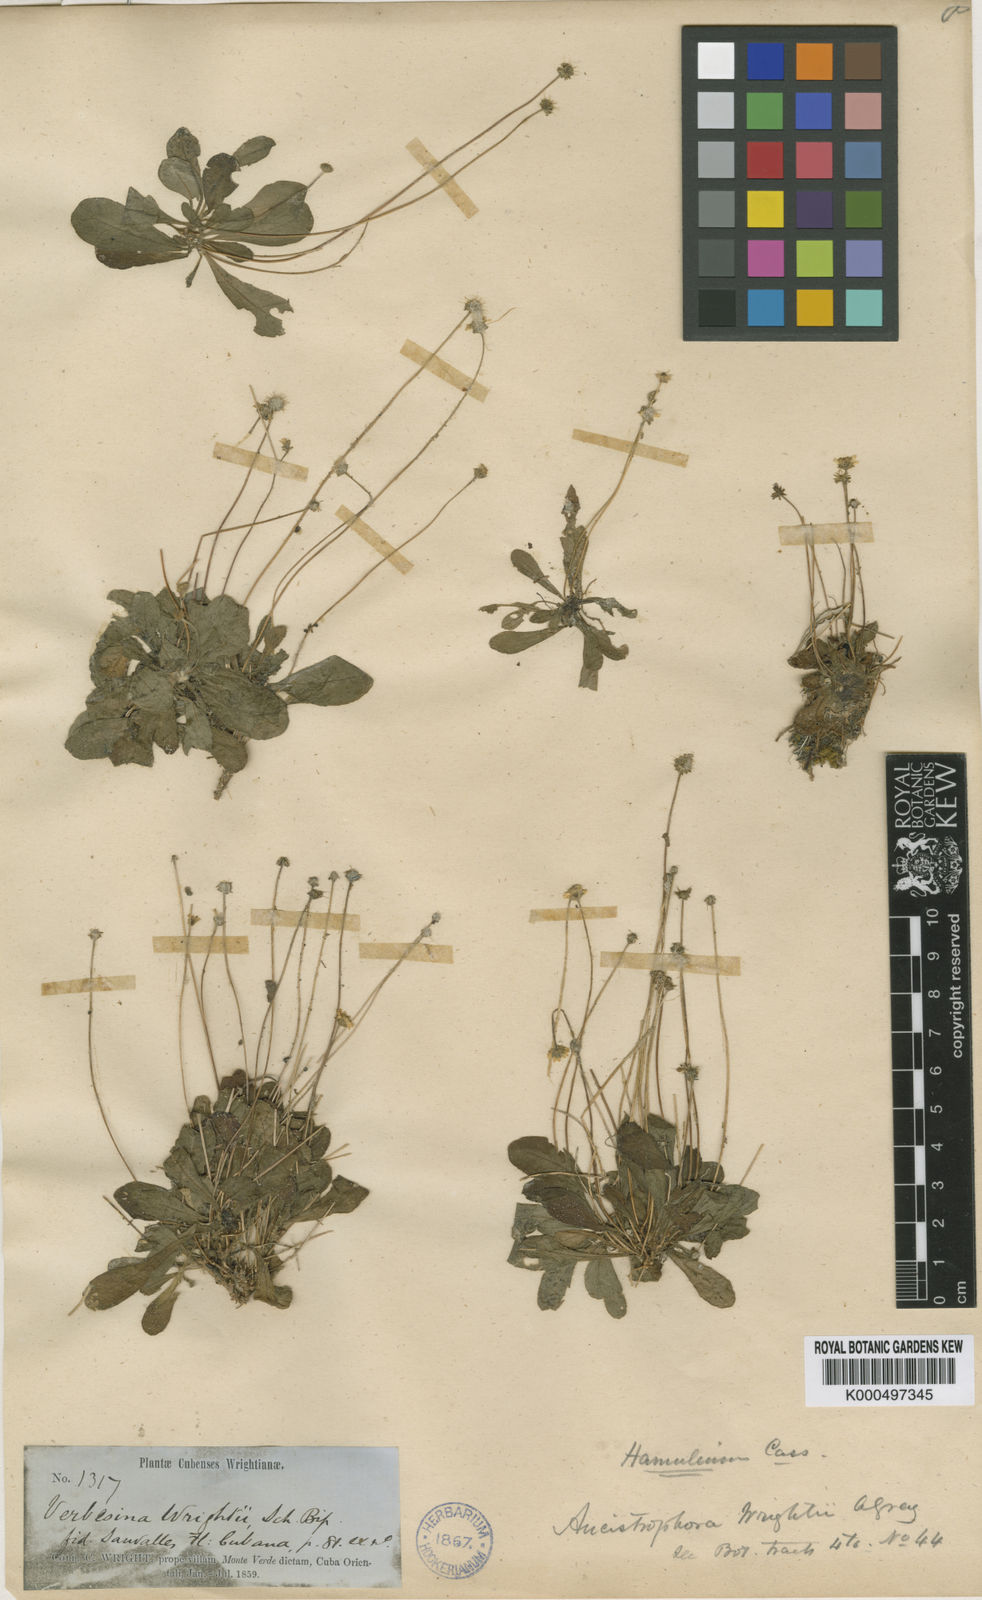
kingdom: Plantae
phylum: Tracheophyta
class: Magnoliopsida
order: Asterales
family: Asteraceae
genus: Verbesina
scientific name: Verbesina rothrockii
